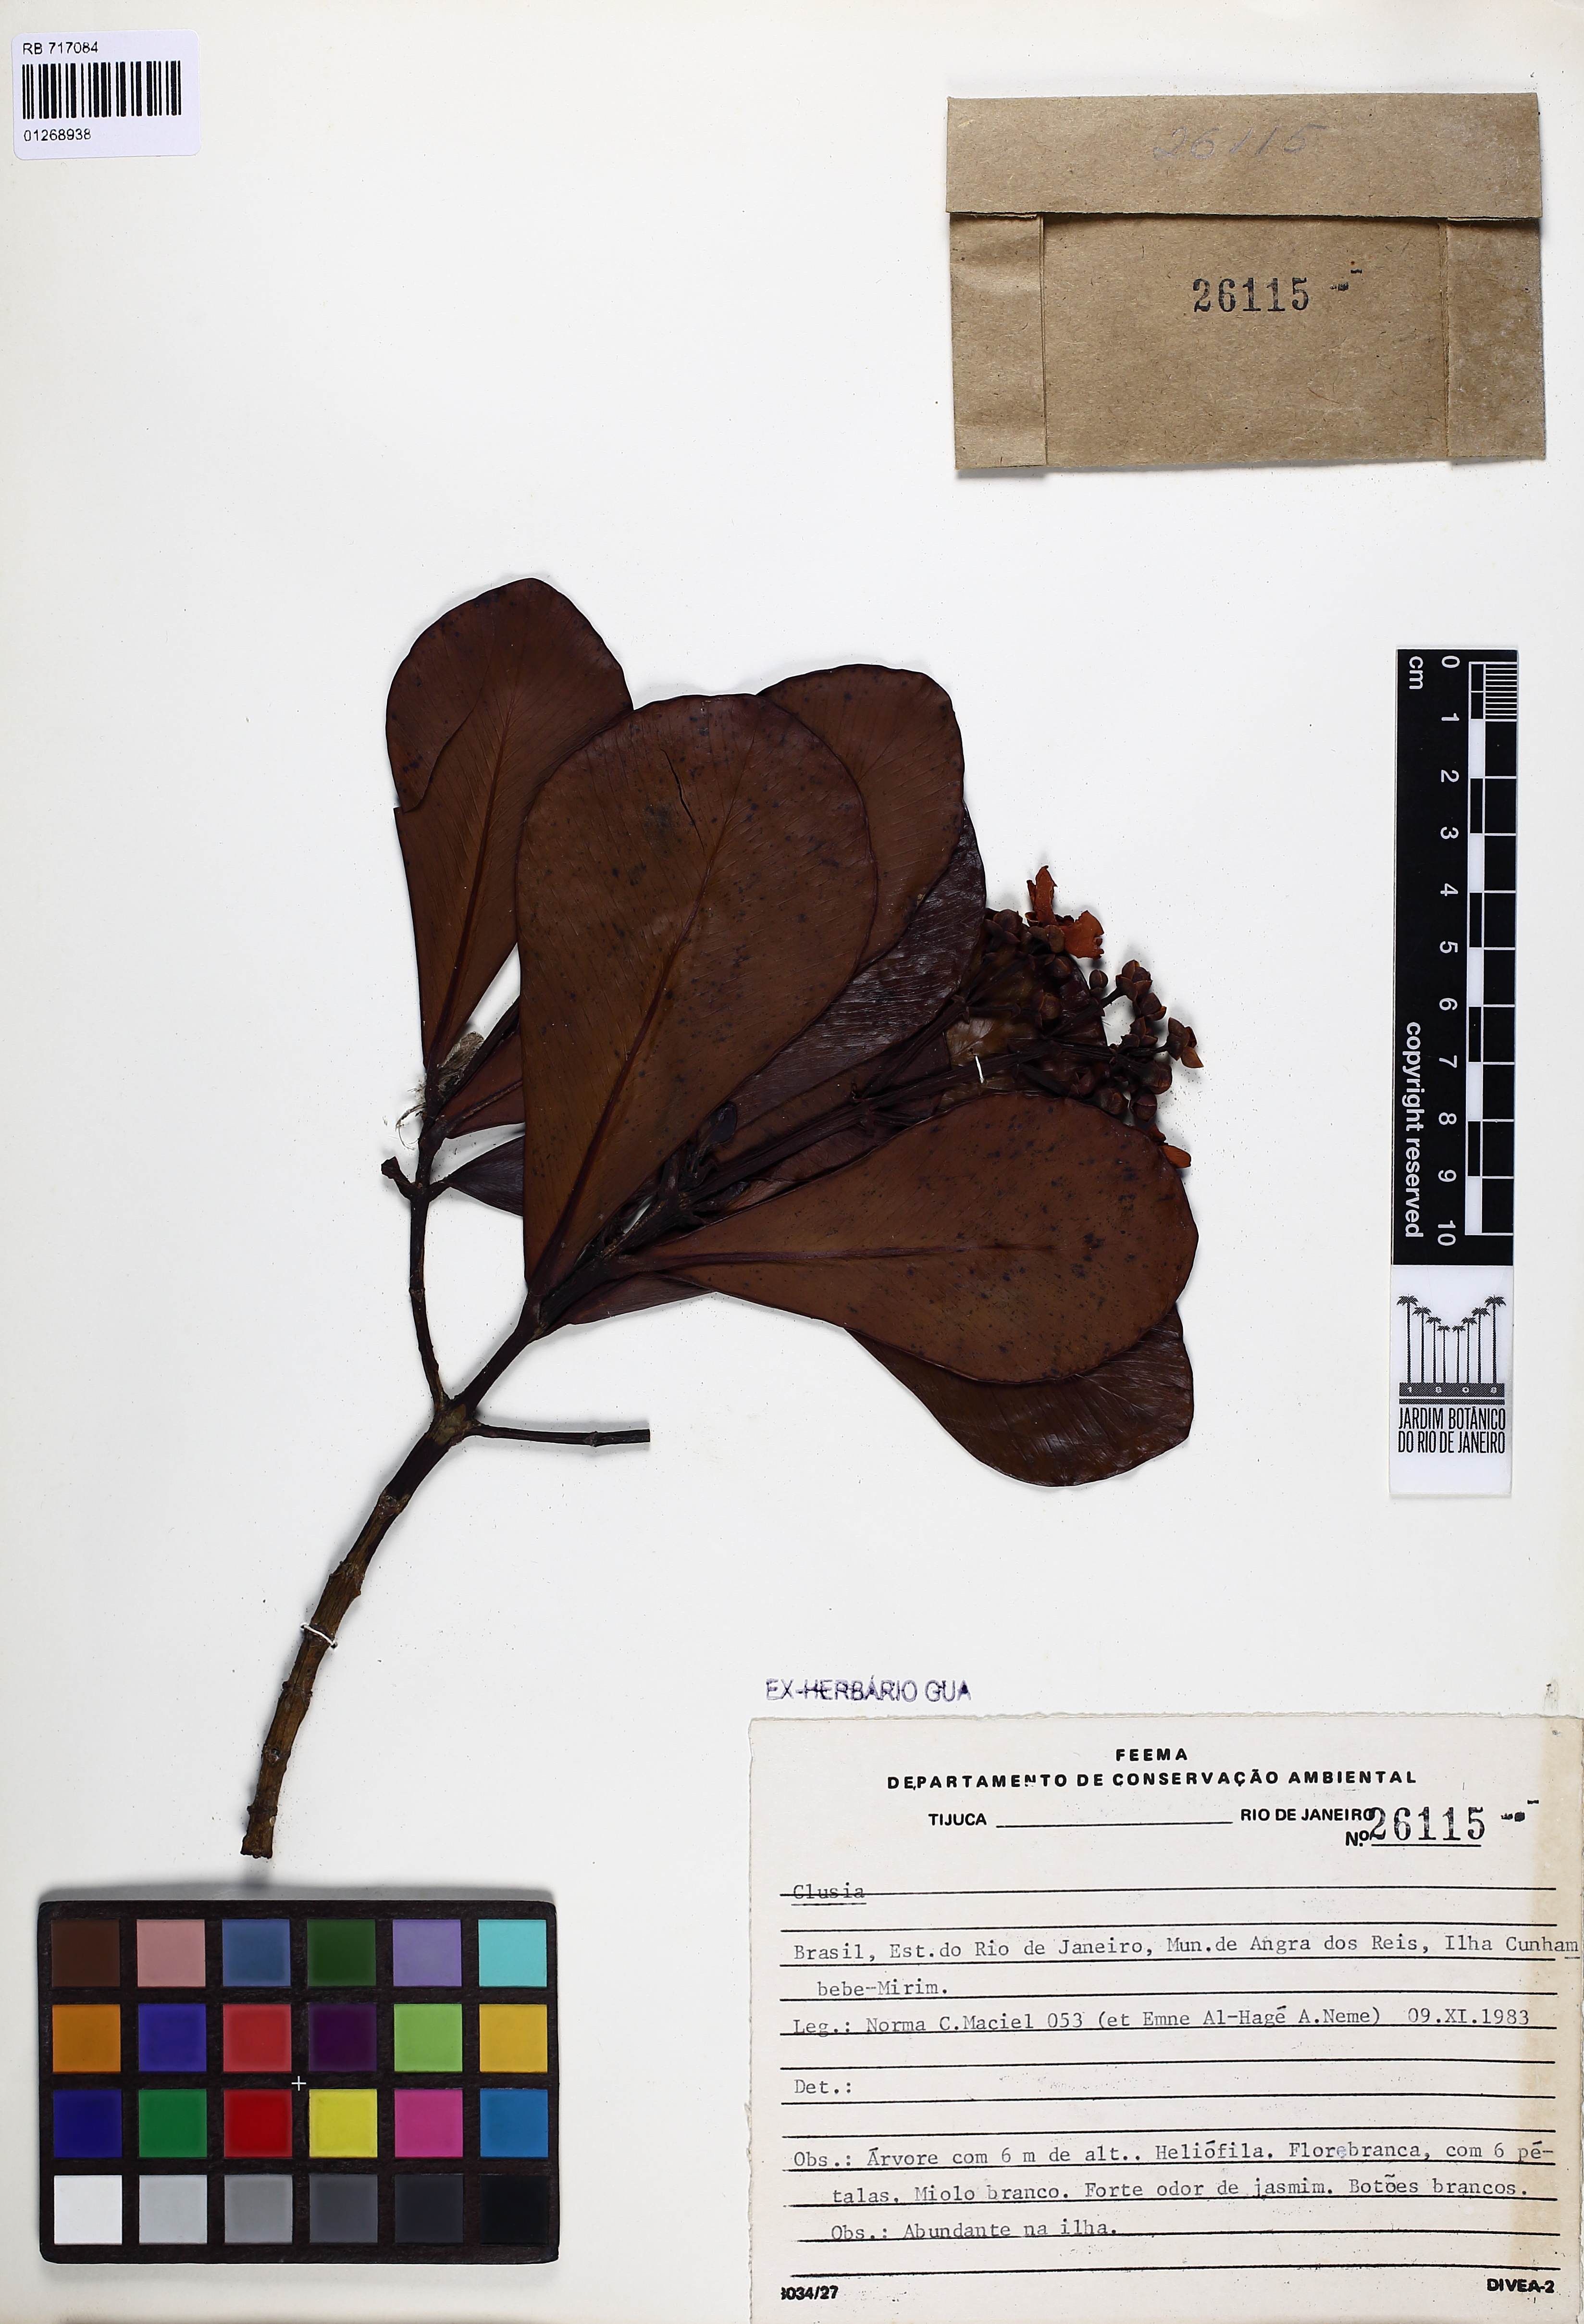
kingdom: Plantae
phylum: Tracheophyta
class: Magnoliopsida
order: Malpighiales
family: Clusiaceae
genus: Clusia
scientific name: Clusia
